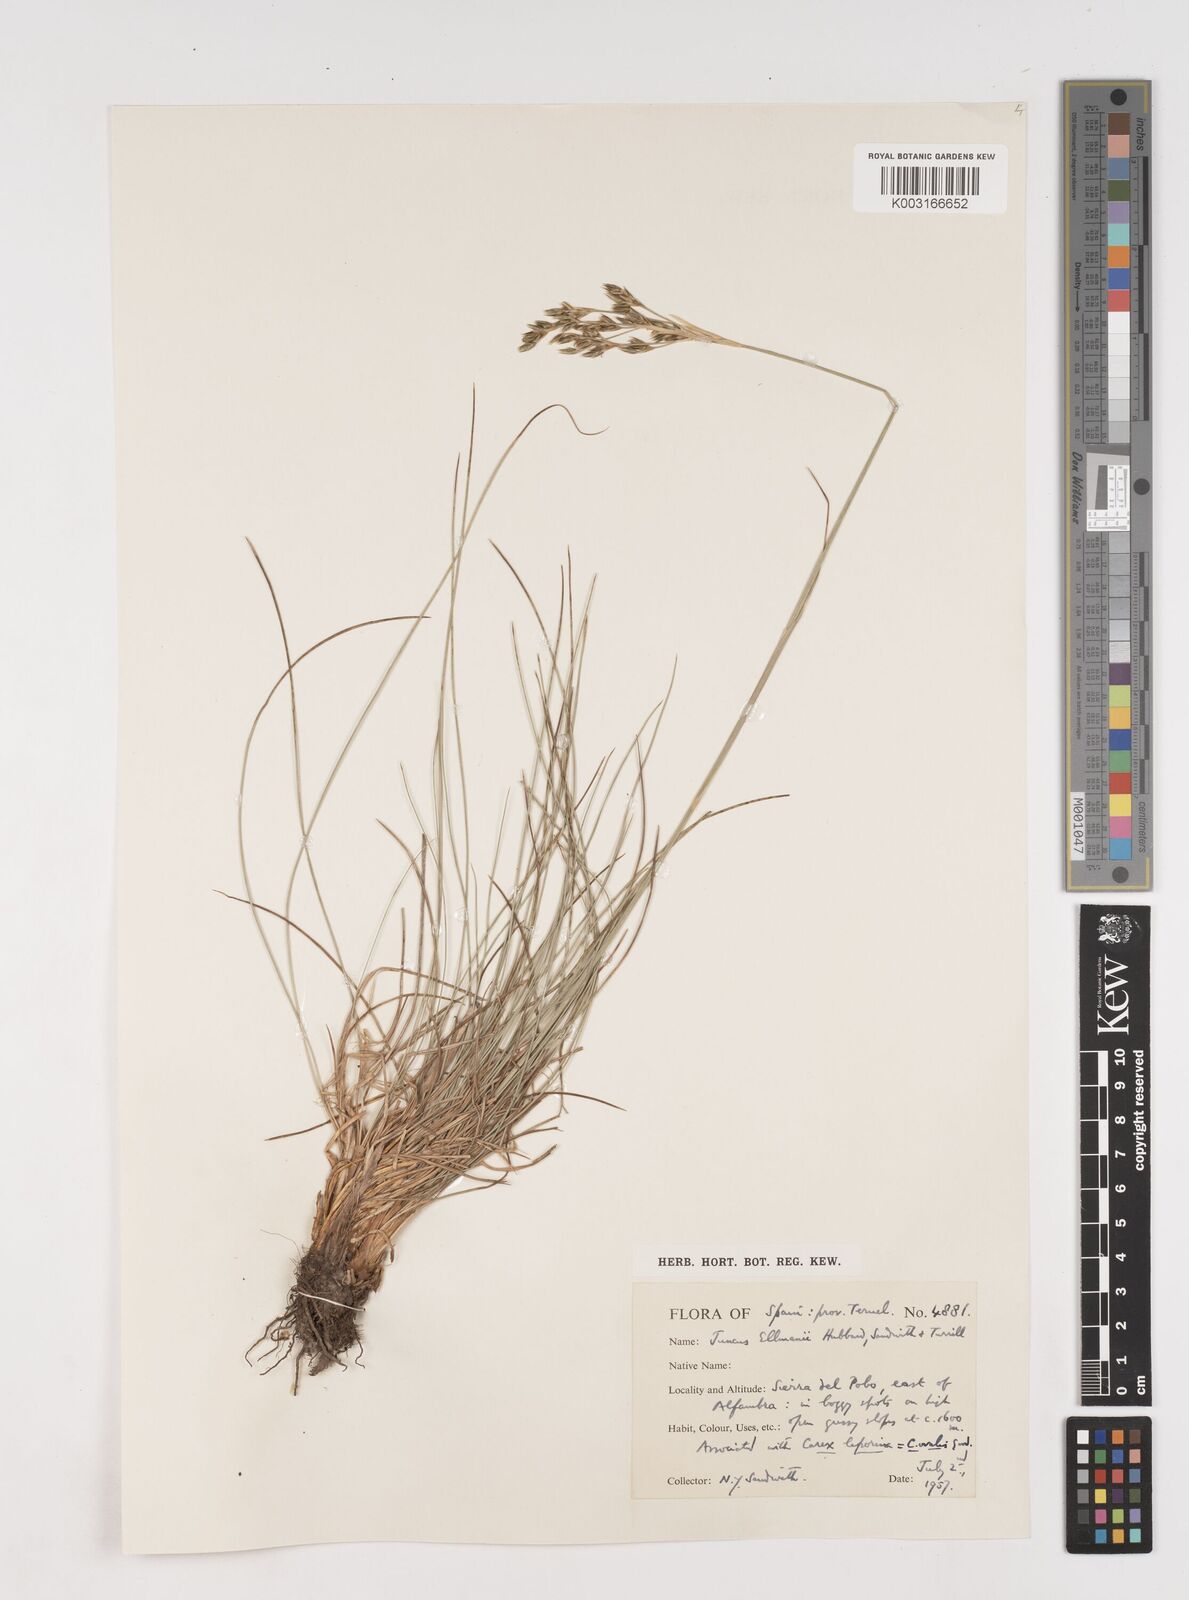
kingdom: Plantae
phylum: Tracheophyta
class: Liliopsida
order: Poales
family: Juncaceae
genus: Juncus
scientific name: Juncus squarrosus
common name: Heath rush
